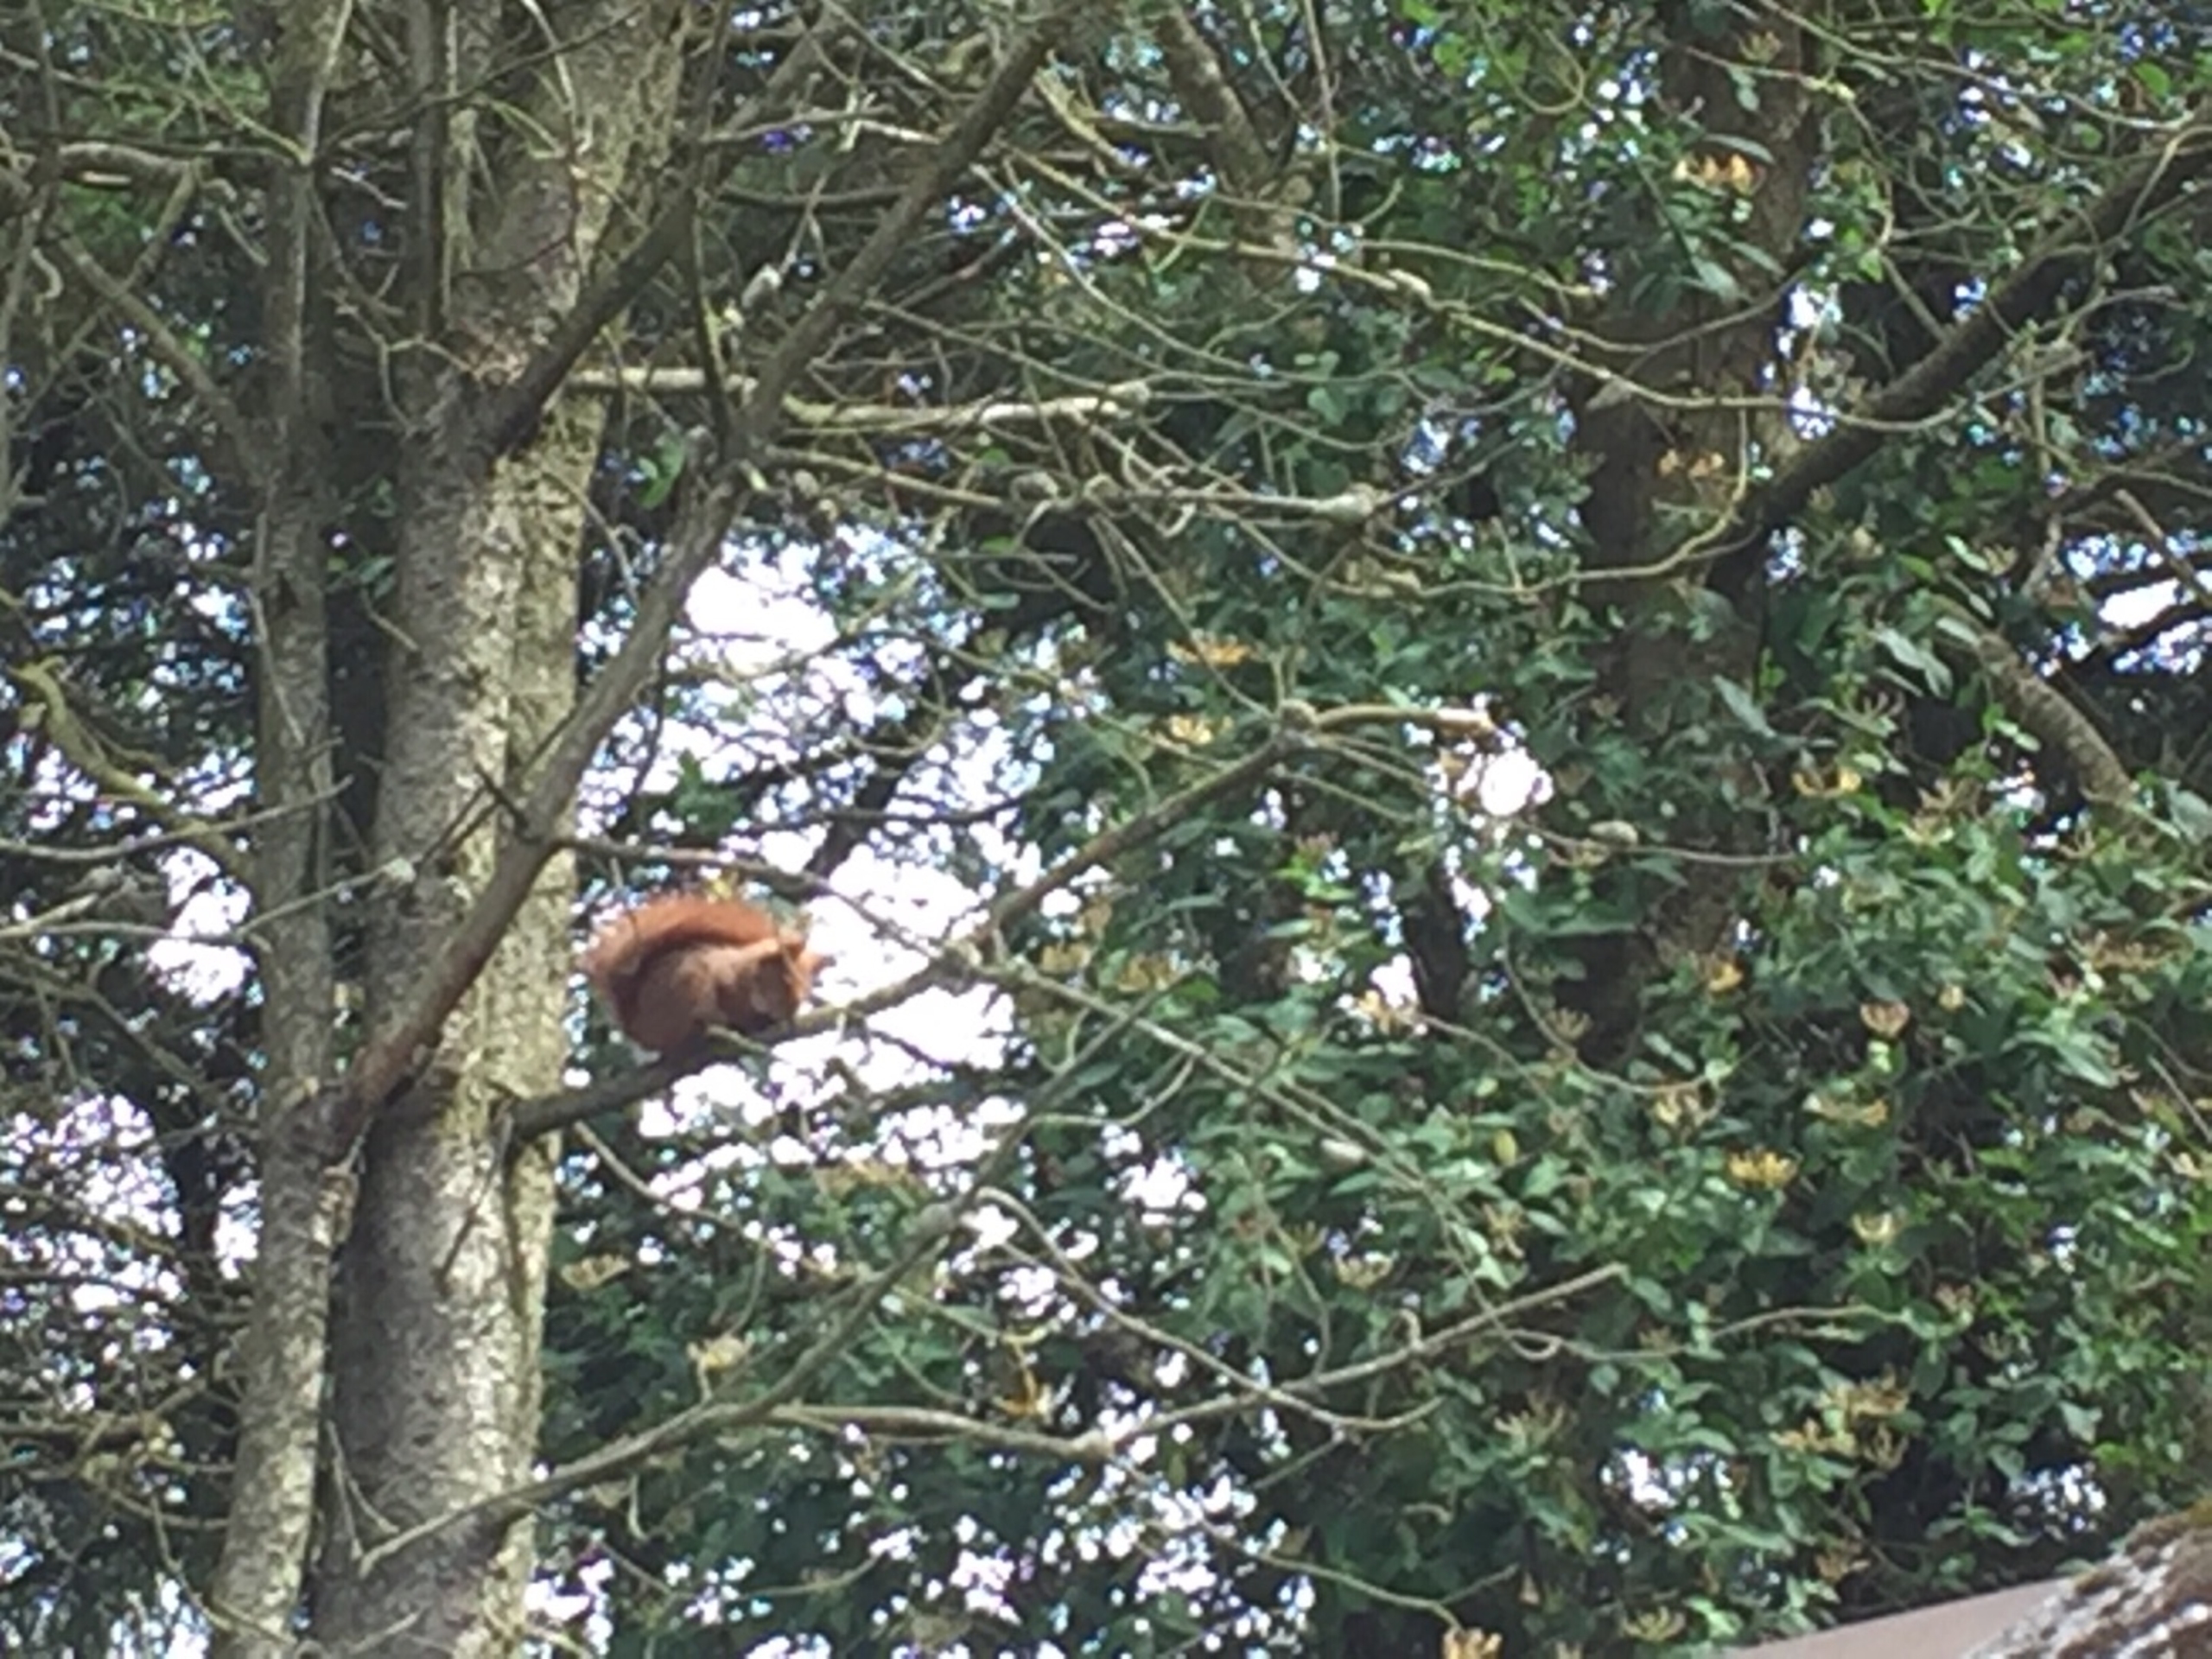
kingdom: Animalia
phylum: Chordata
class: Mammalia
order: Rodentia
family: Sciuridae
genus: Sciurus
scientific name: Sciurus vulgaris
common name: Egern
